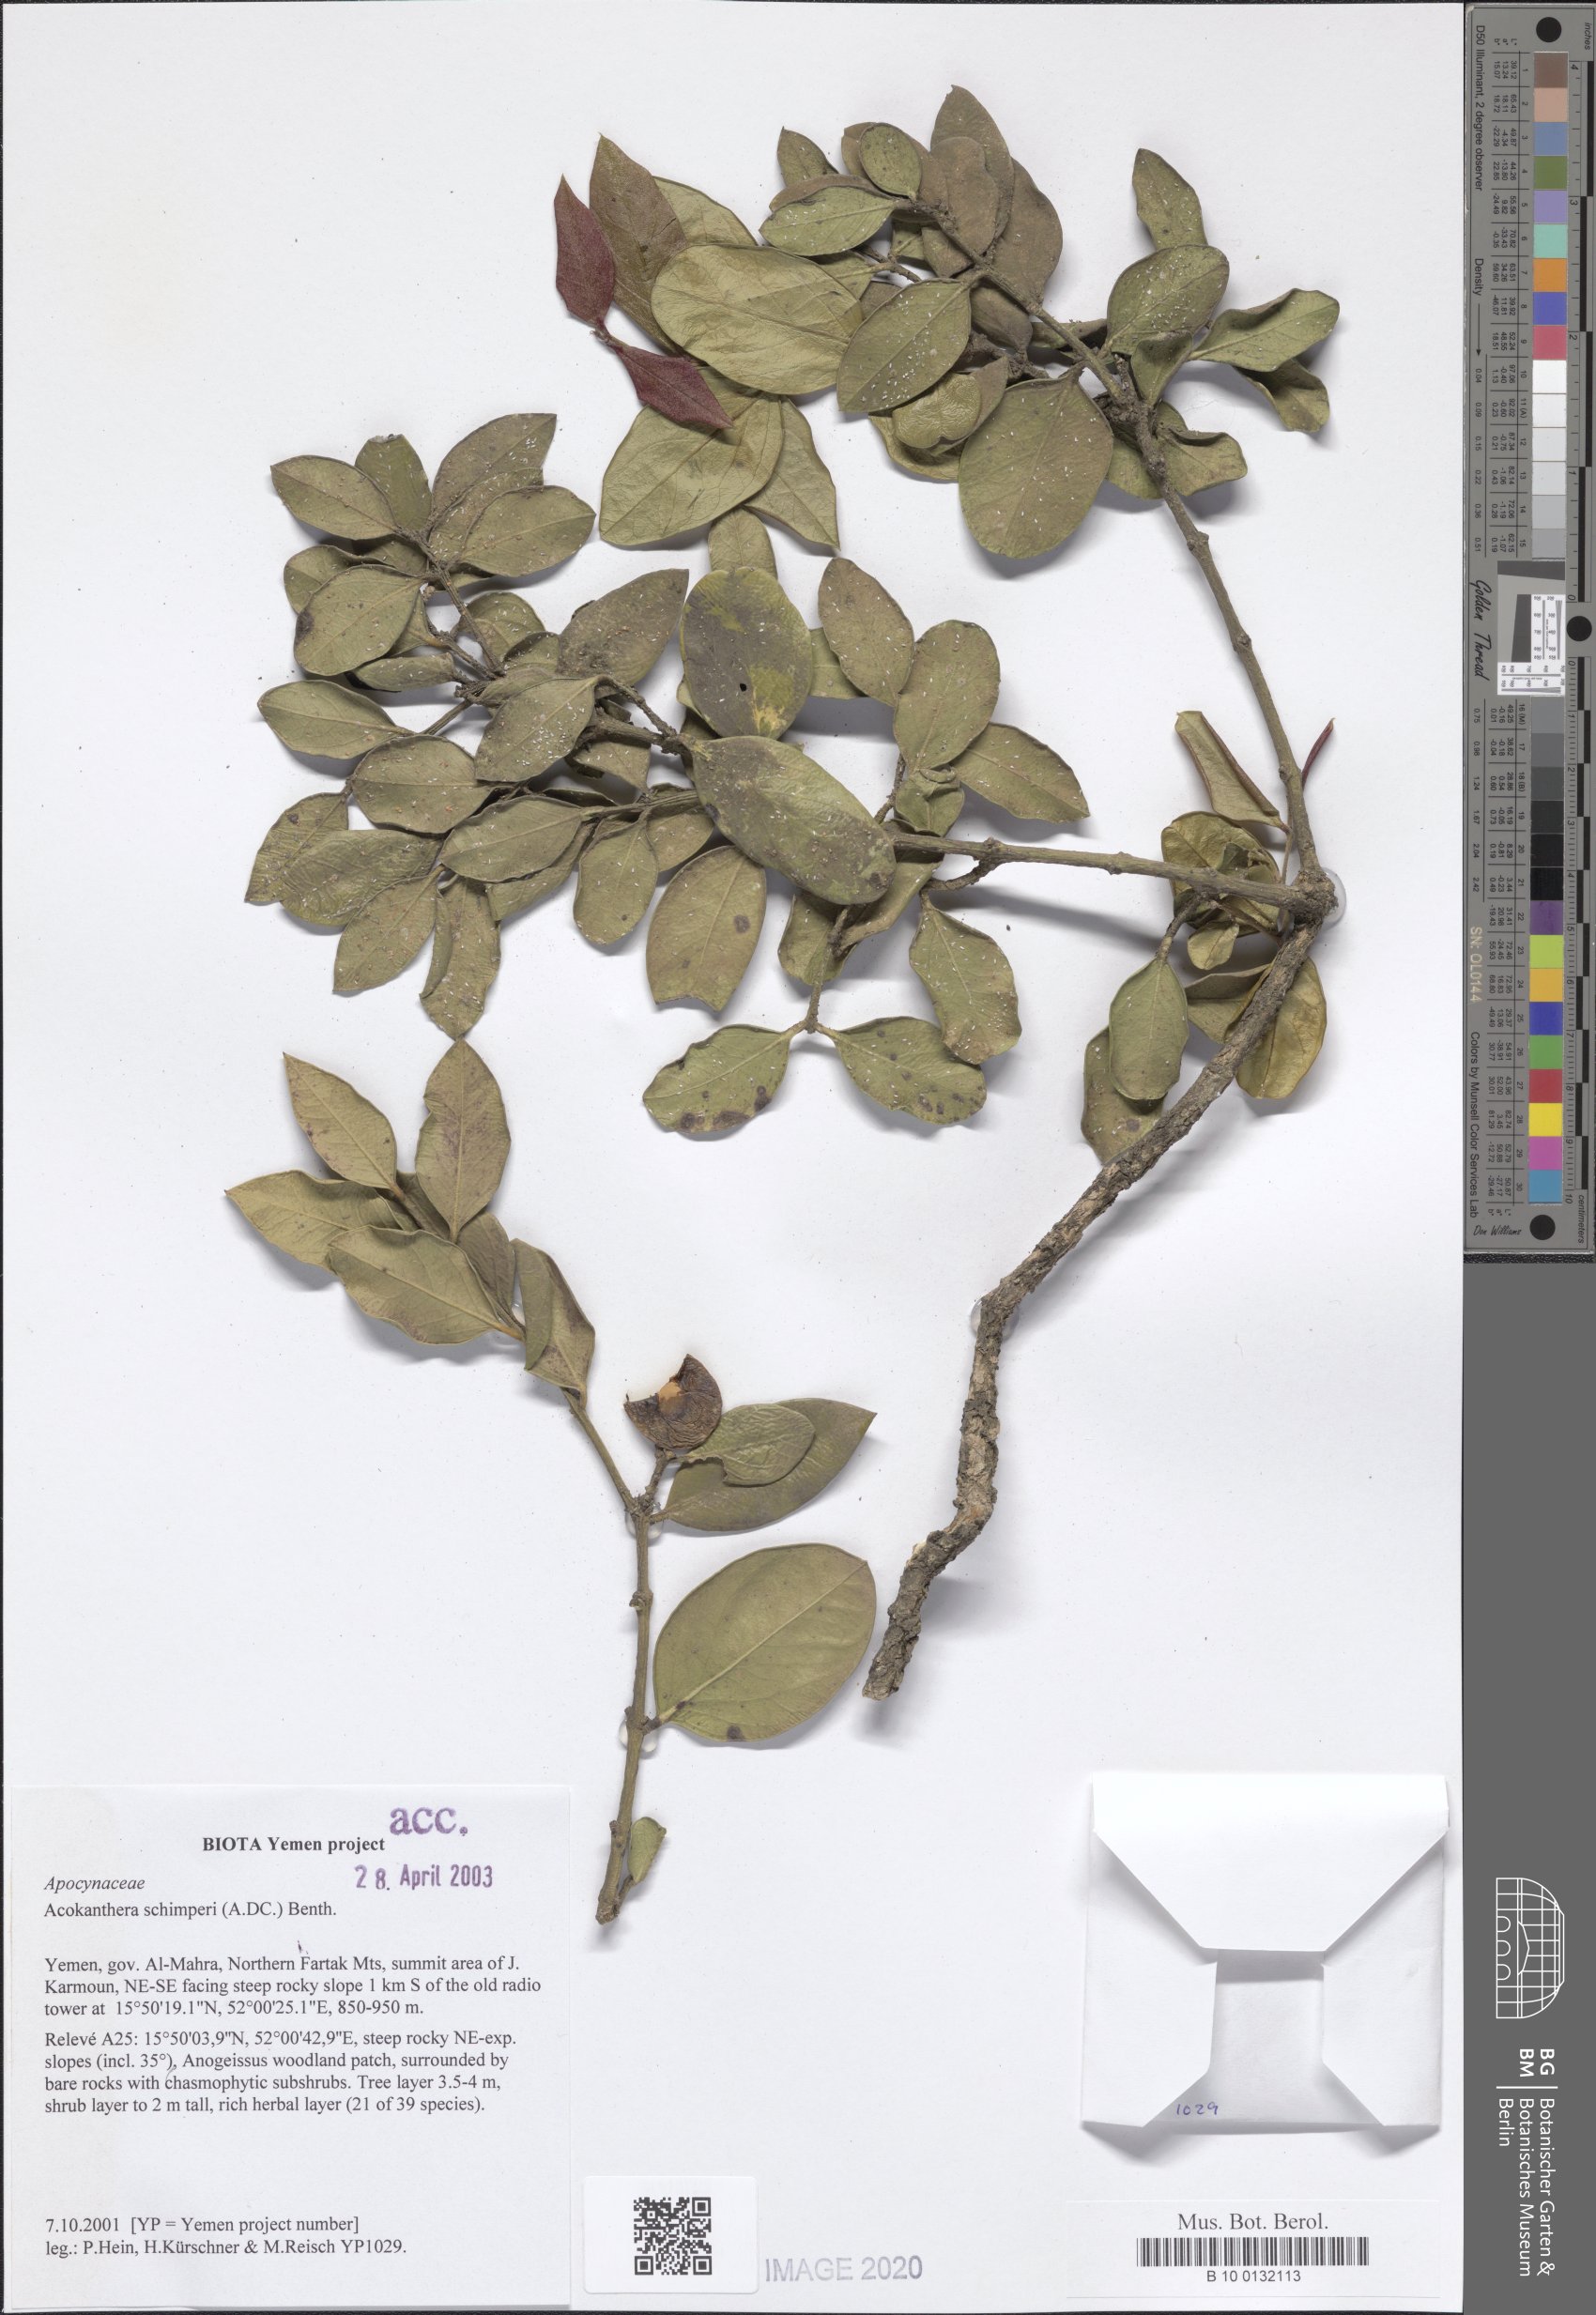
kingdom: Plantae
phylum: Tracheophyta
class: Magnoliopsida
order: Gentianales
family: Apocynaceae
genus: Acokanthera
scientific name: Acokanthera schimperi
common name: Arrow-poison-tree
